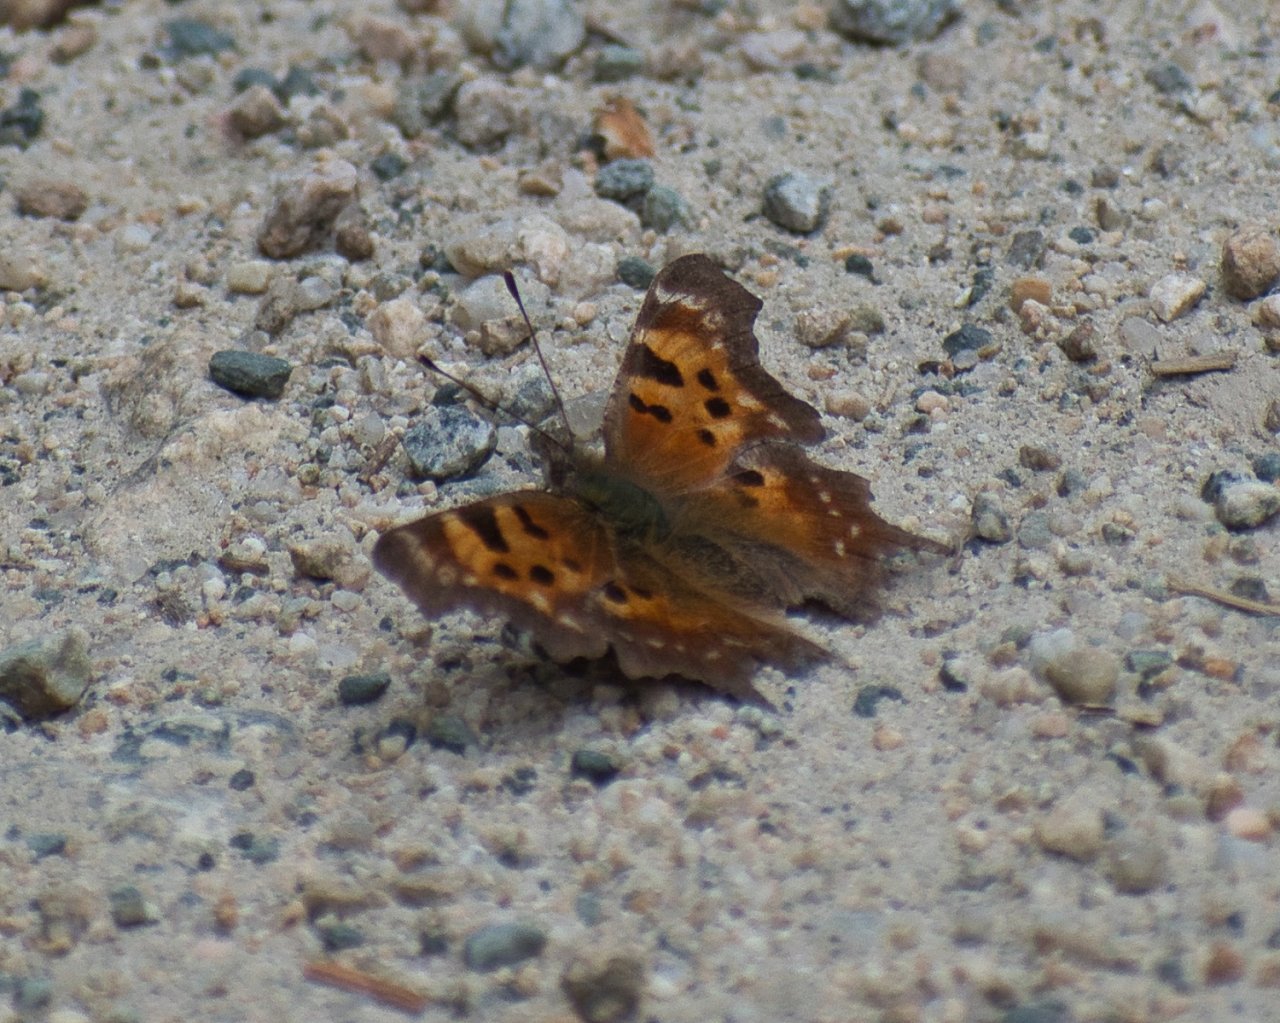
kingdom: Animalia
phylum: Arthropoda
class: Insecta
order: Lepidoptera
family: Nymphalidae
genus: Polygonia
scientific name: Polygonia faunus
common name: Green Comma
